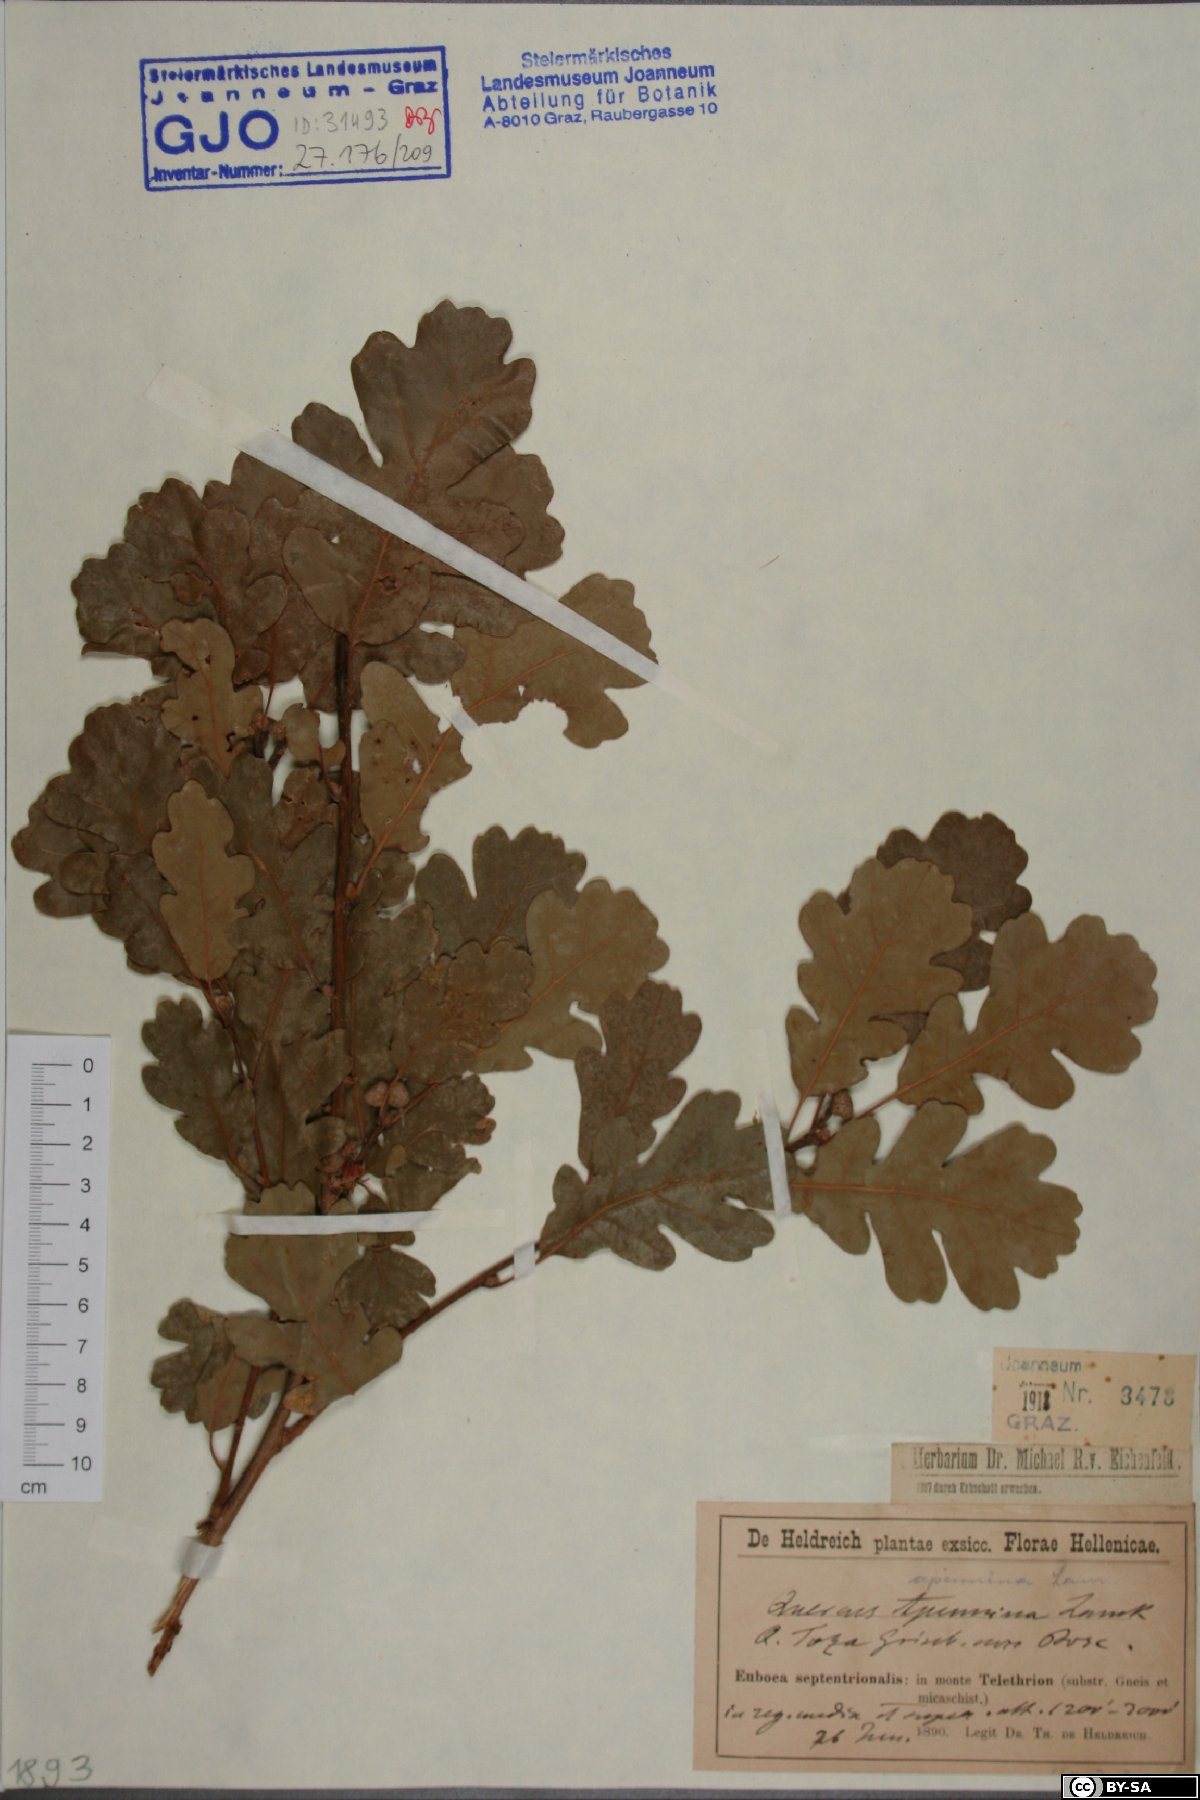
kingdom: Plantae
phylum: Tracheophyta
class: Magnoliopsida
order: Fagales
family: Fagaceae
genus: Quercus
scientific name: Quercus pubescens
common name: Downy oak
